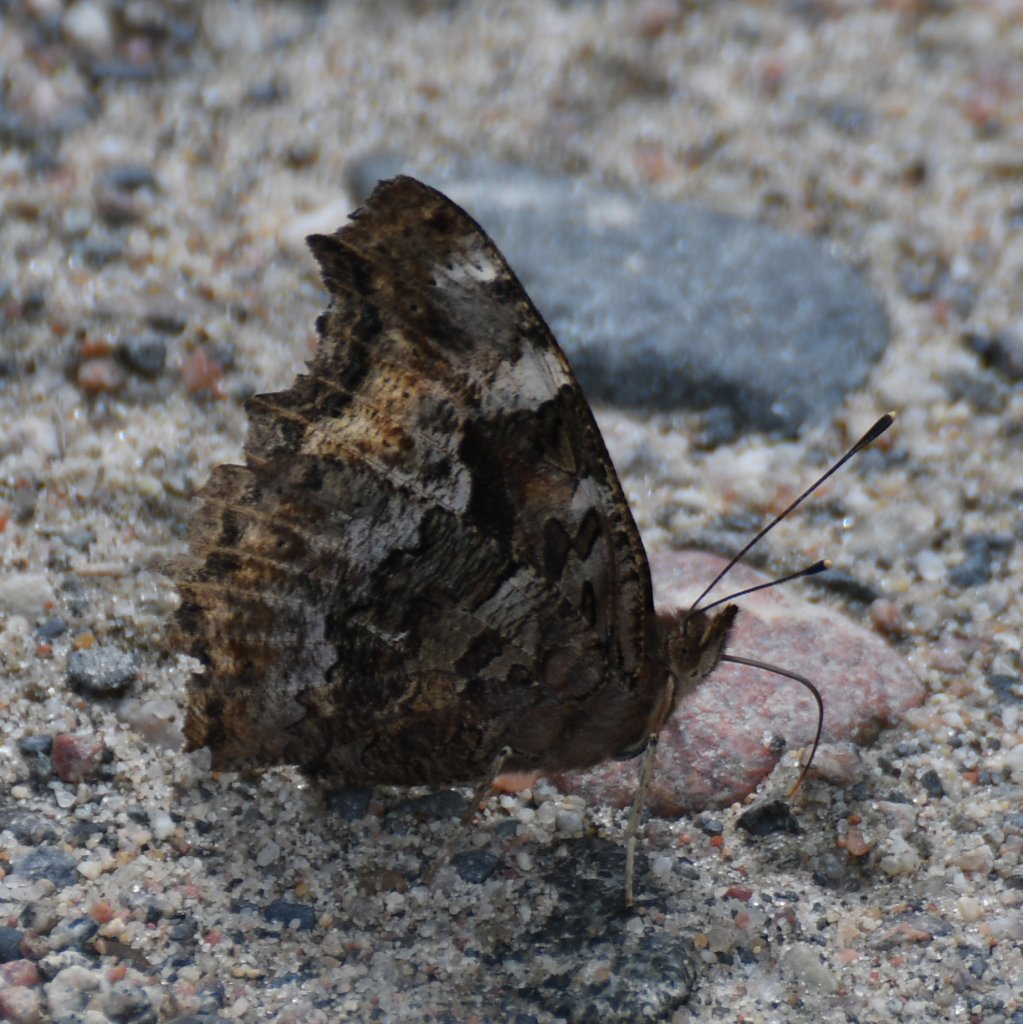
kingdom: Animalia
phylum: Arthropoda
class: Insecta
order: Lepidoptera
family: Nymphalidae
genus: Polygonia
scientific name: Polygonia vaualbum
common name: Compton Tortoiseshell
